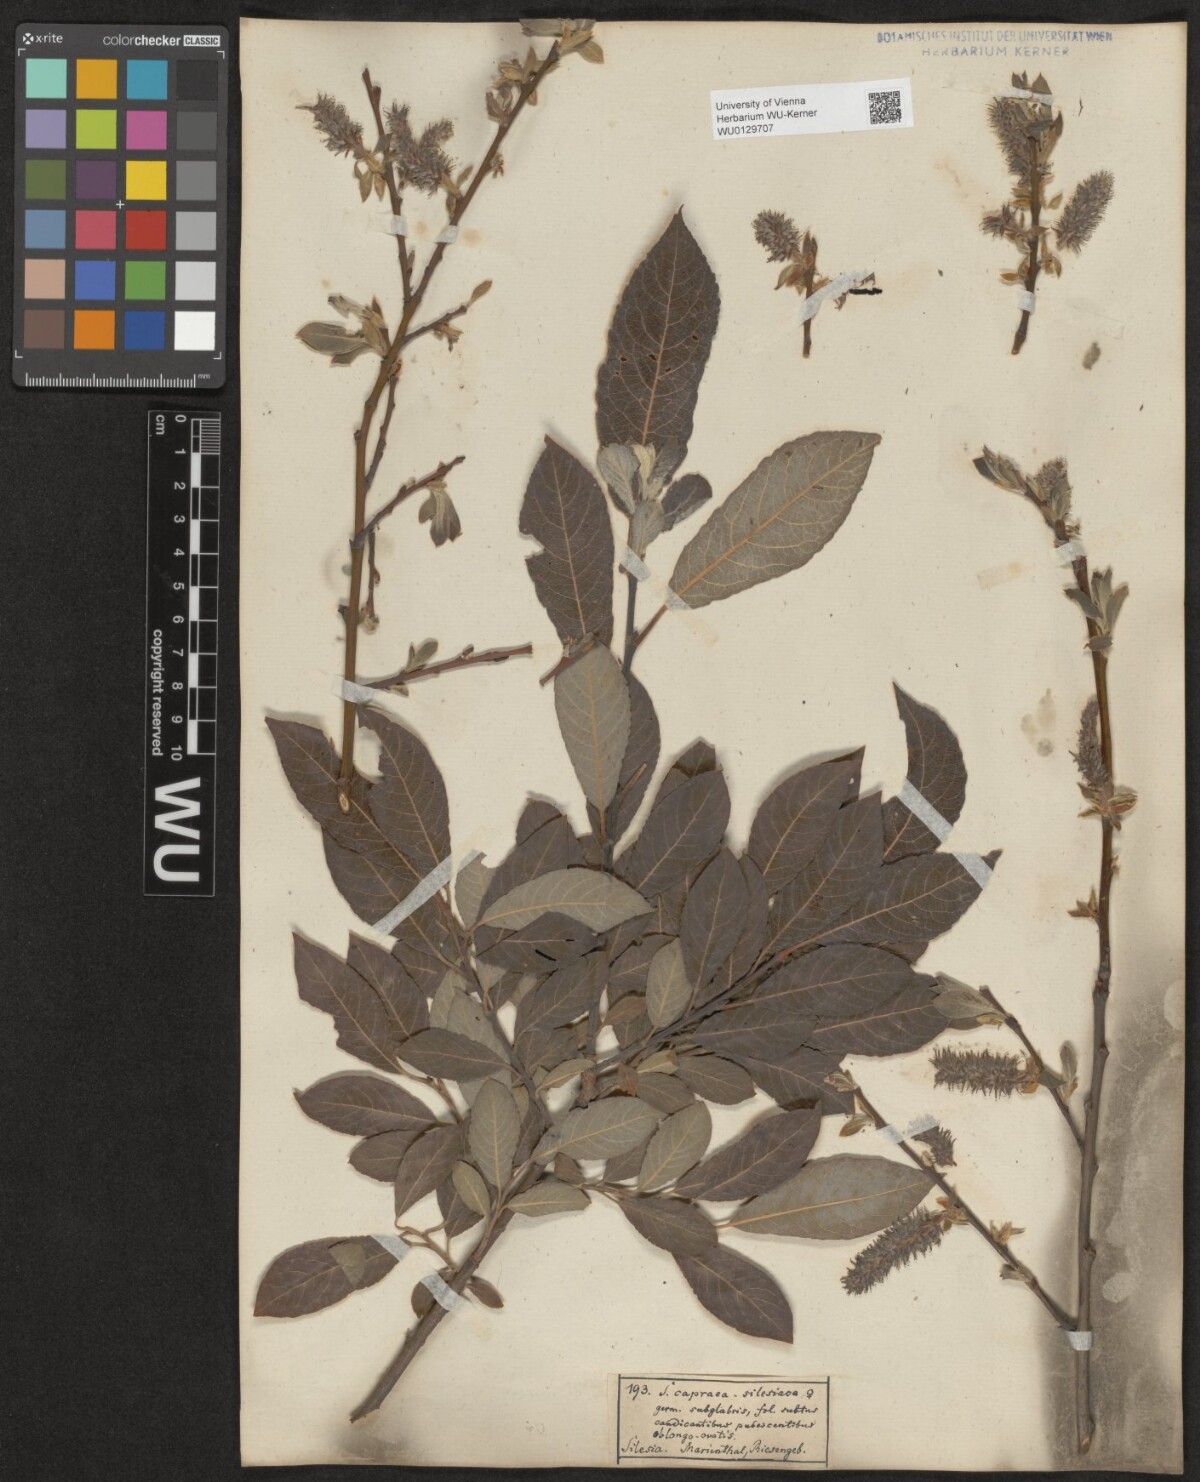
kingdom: Plantae
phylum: Tracheophyta
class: Magnoliopsida
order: Malpighiales
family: Salicaceae
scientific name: Salicaceae
